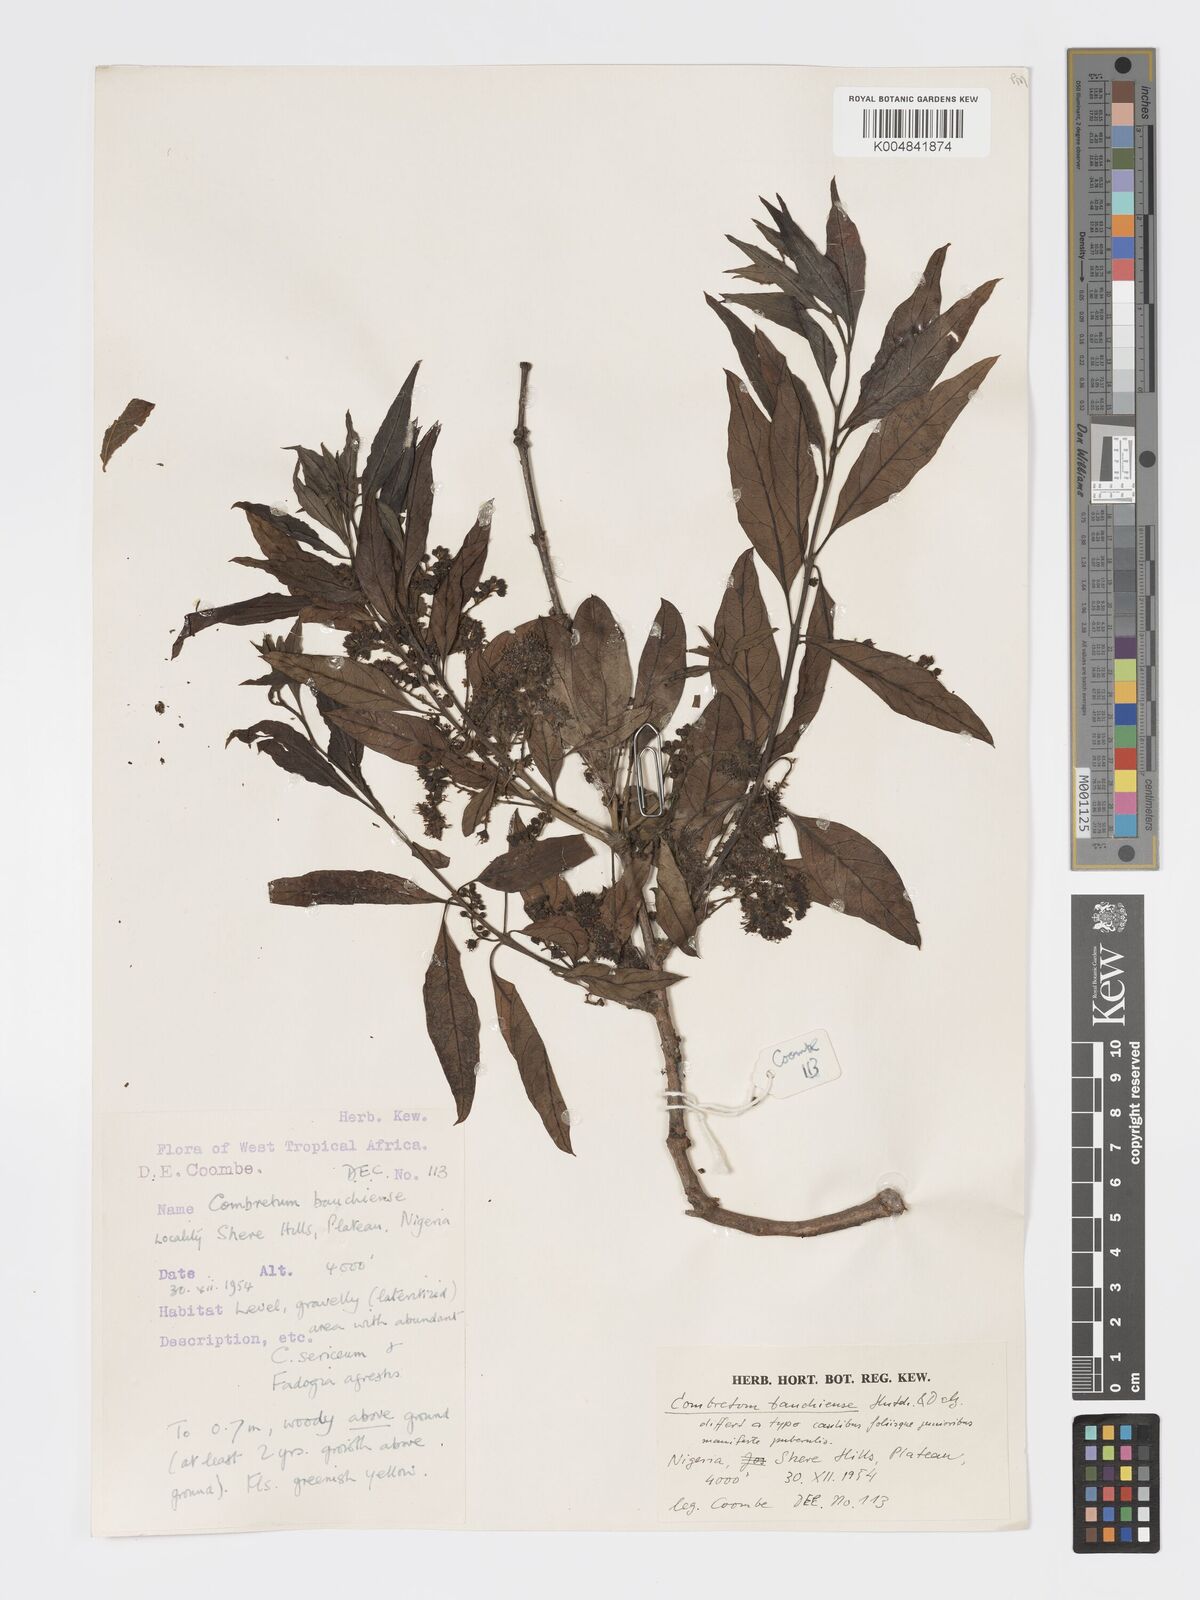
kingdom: Plantae
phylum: Tracheophyta
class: Magnoliopsida
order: Myrtales
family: Combretaceae
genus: Combretum
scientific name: Combretum bauchiense
